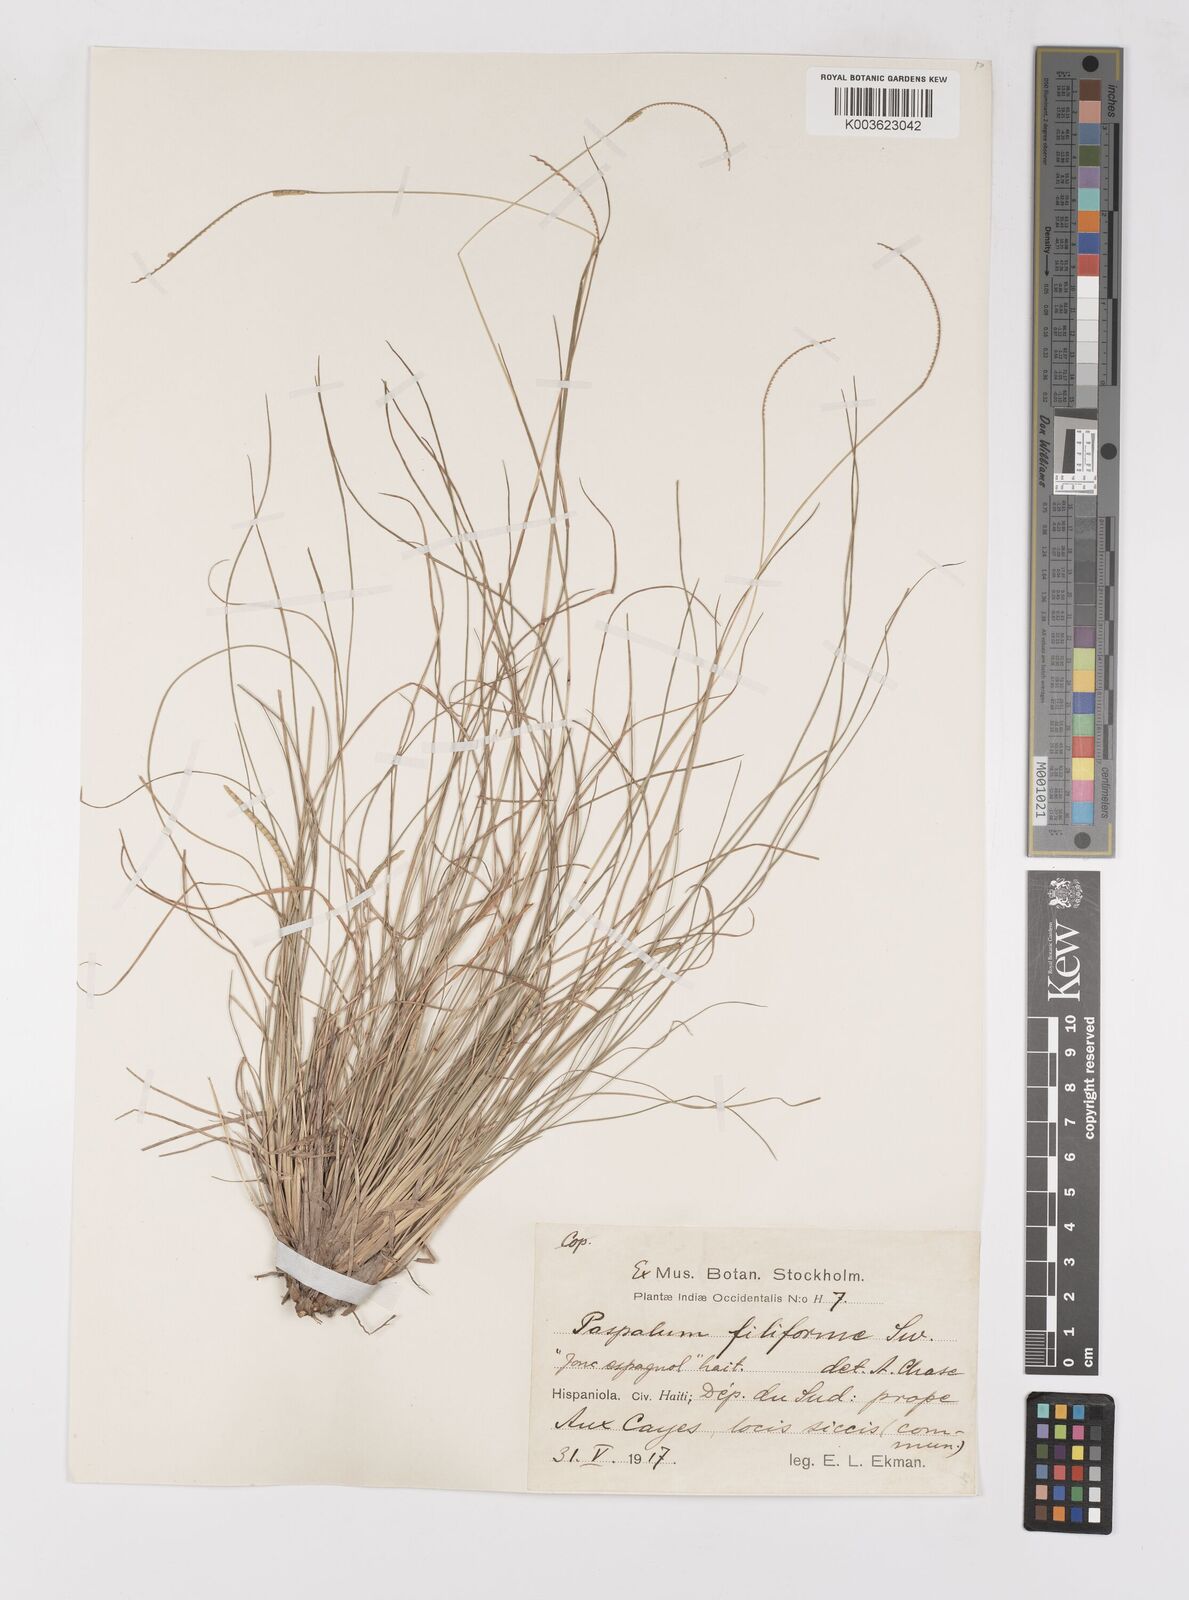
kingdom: Plantae
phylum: Tracheophyta
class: Liliopsida
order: Poales
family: Poaceae
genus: Paspalum
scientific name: Paspalum filiforme
